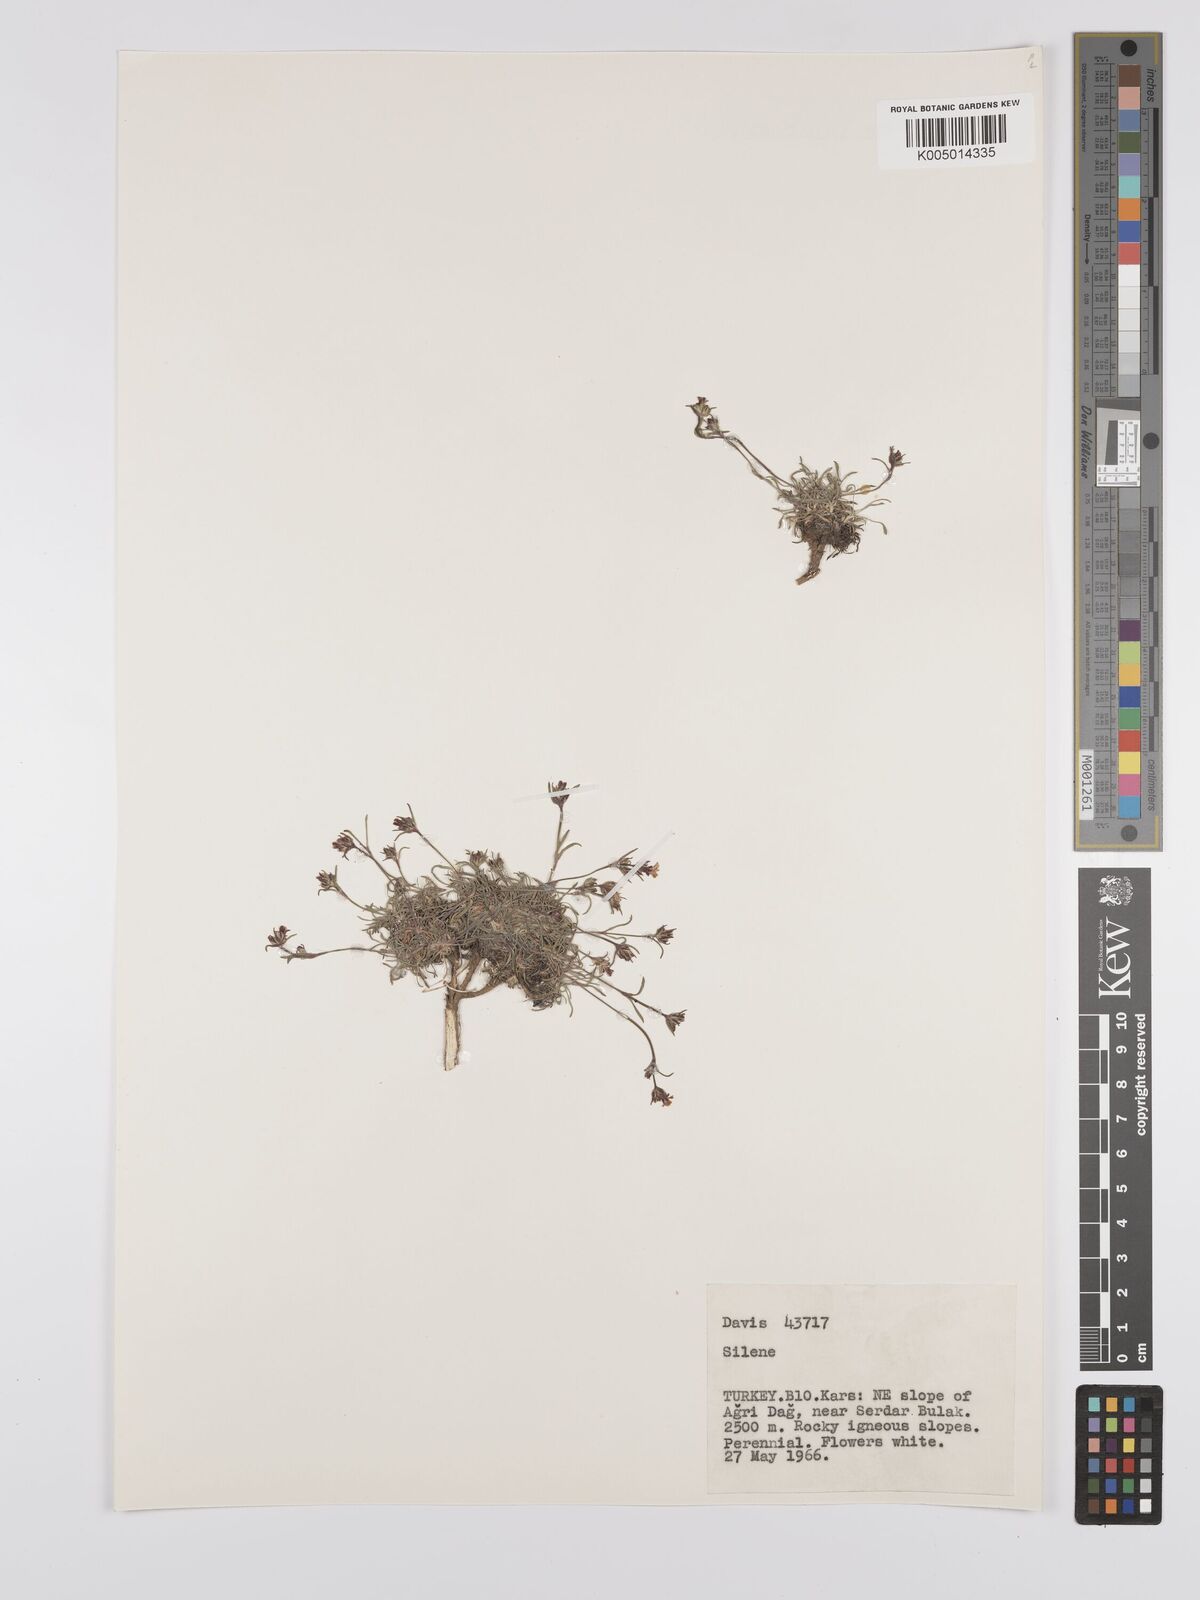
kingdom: Plantae
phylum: Tracheophyta
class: Magnoliopsida
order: Caryophyllales
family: Caryophyllaceae
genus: Silene
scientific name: Silene
